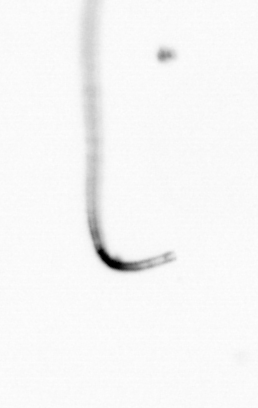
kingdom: Chromista
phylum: Ochrophyta
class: Bacillariophyceae
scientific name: Bacillariophyceae
